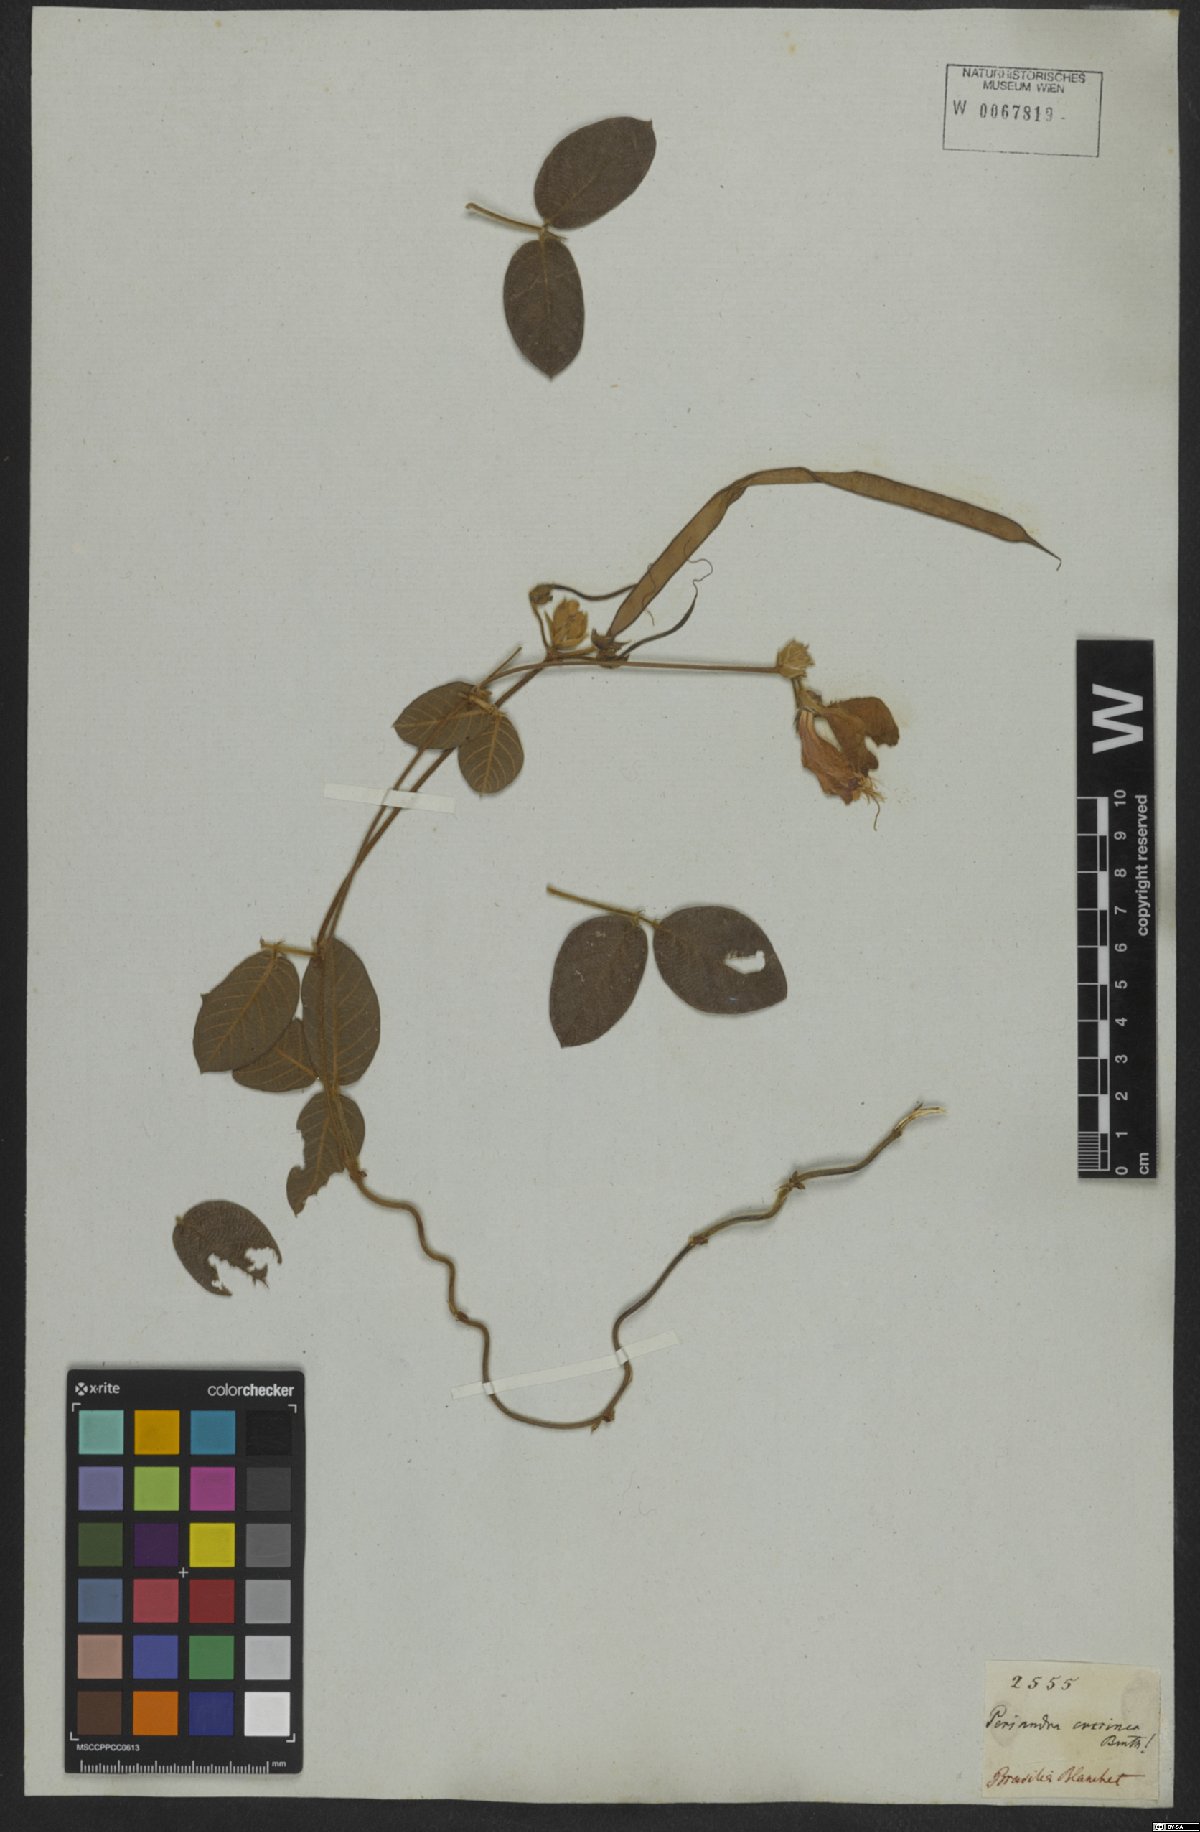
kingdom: Plantae
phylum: Tracheophyta
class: Magnoliopsida
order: Fabales
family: Fabaceae
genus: Periandra
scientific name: Periandra coccinea
